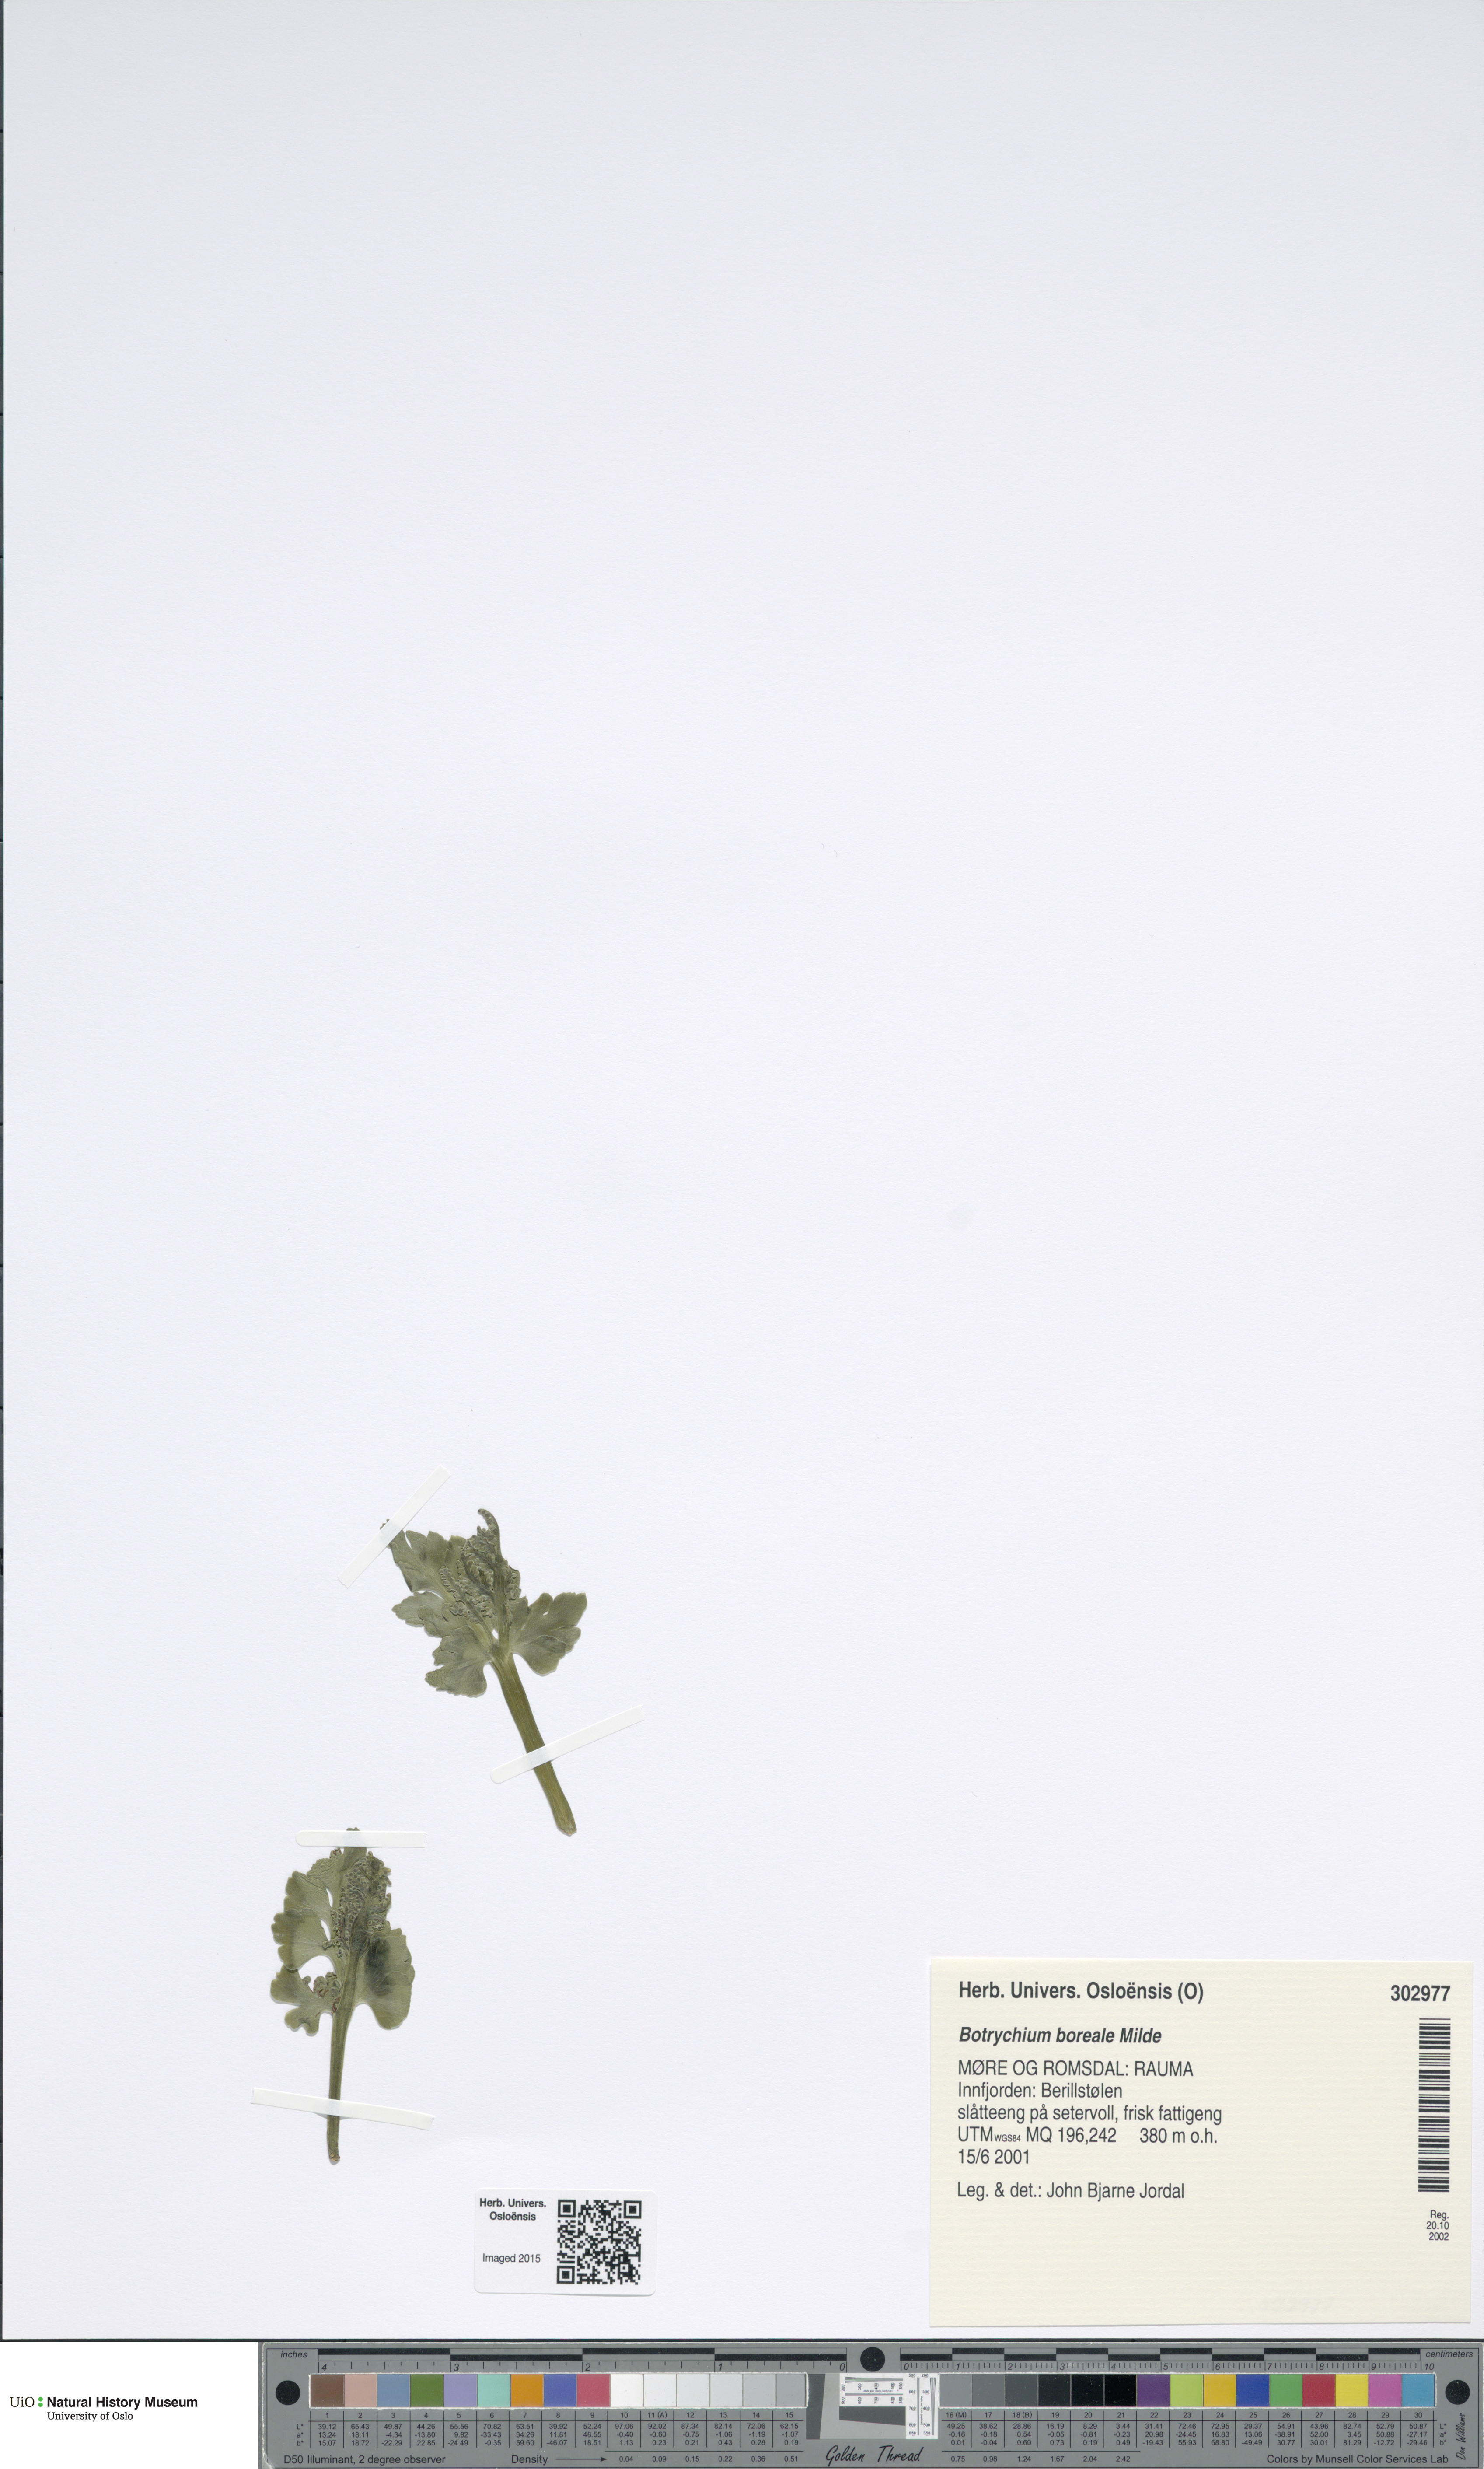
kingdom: Plantae
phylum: Tracheophyta
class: Polypodiopsida
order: Ophioglossales
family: Ophioglossaceae
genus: Botrychium
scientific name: Botrychium boreale
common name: Boreal moonwort
